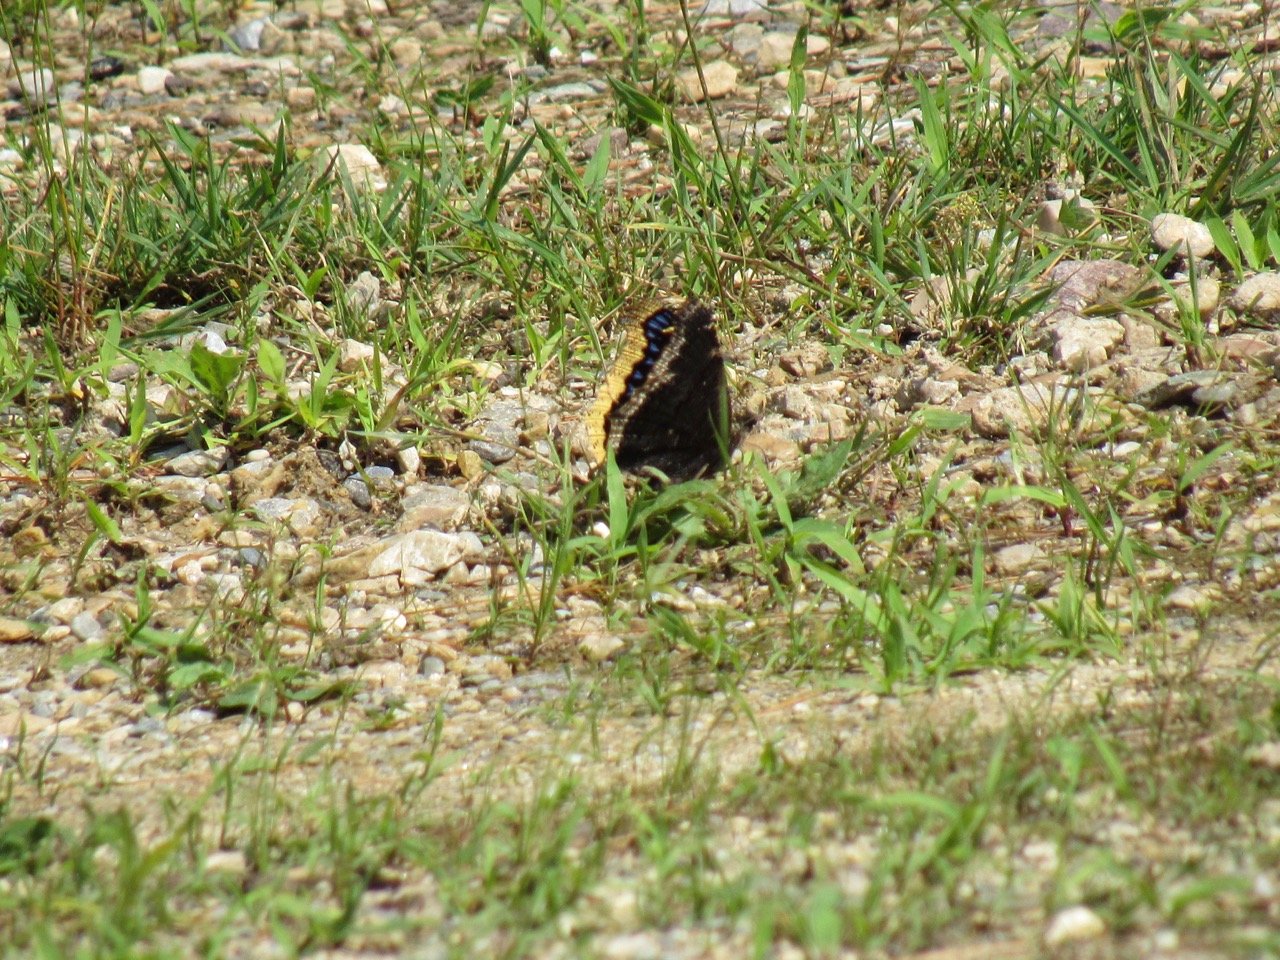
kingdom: Animalia
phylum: Arthropoda
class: Insecta
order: Lepidoptera
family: Nymphalidae
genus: Nymphalis
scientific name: Nymphalis antiopa
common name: Mourning Cloak
